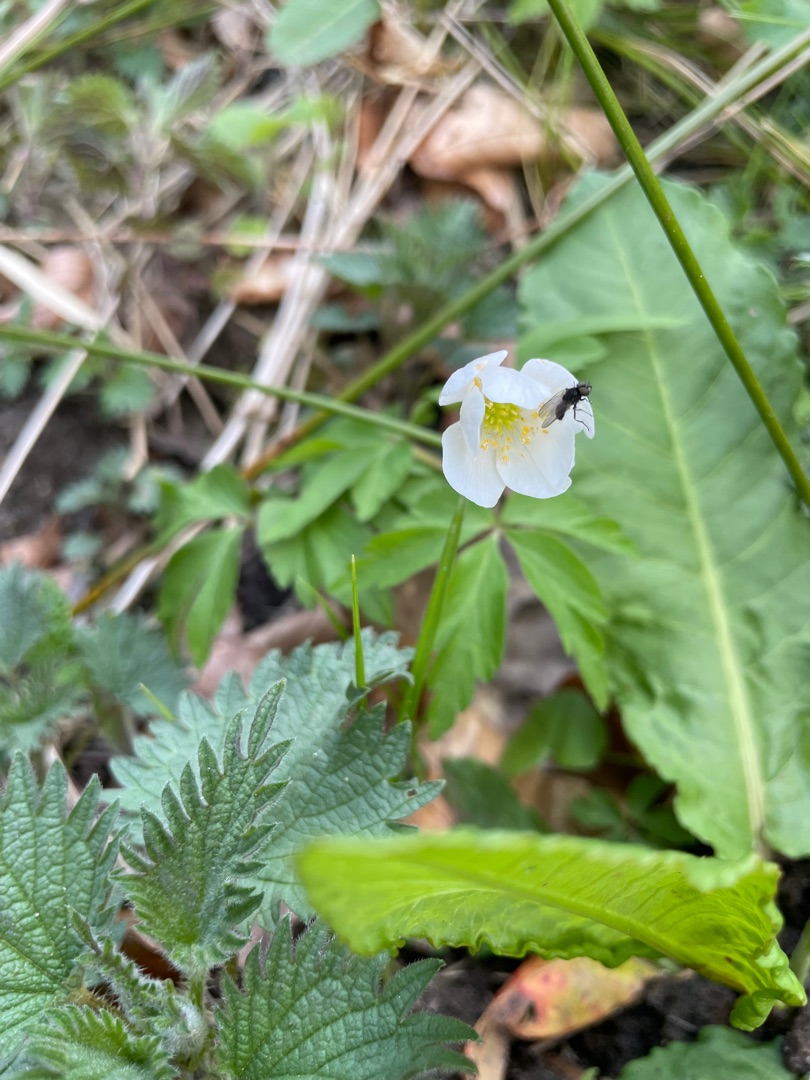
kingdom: Plantae
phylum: Tracheophyta
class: Magnoliopsida
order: Ranunculales
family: Ranunculaceae
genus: Anemone
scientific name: Anemone nemorosa
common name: Hvid anemone
